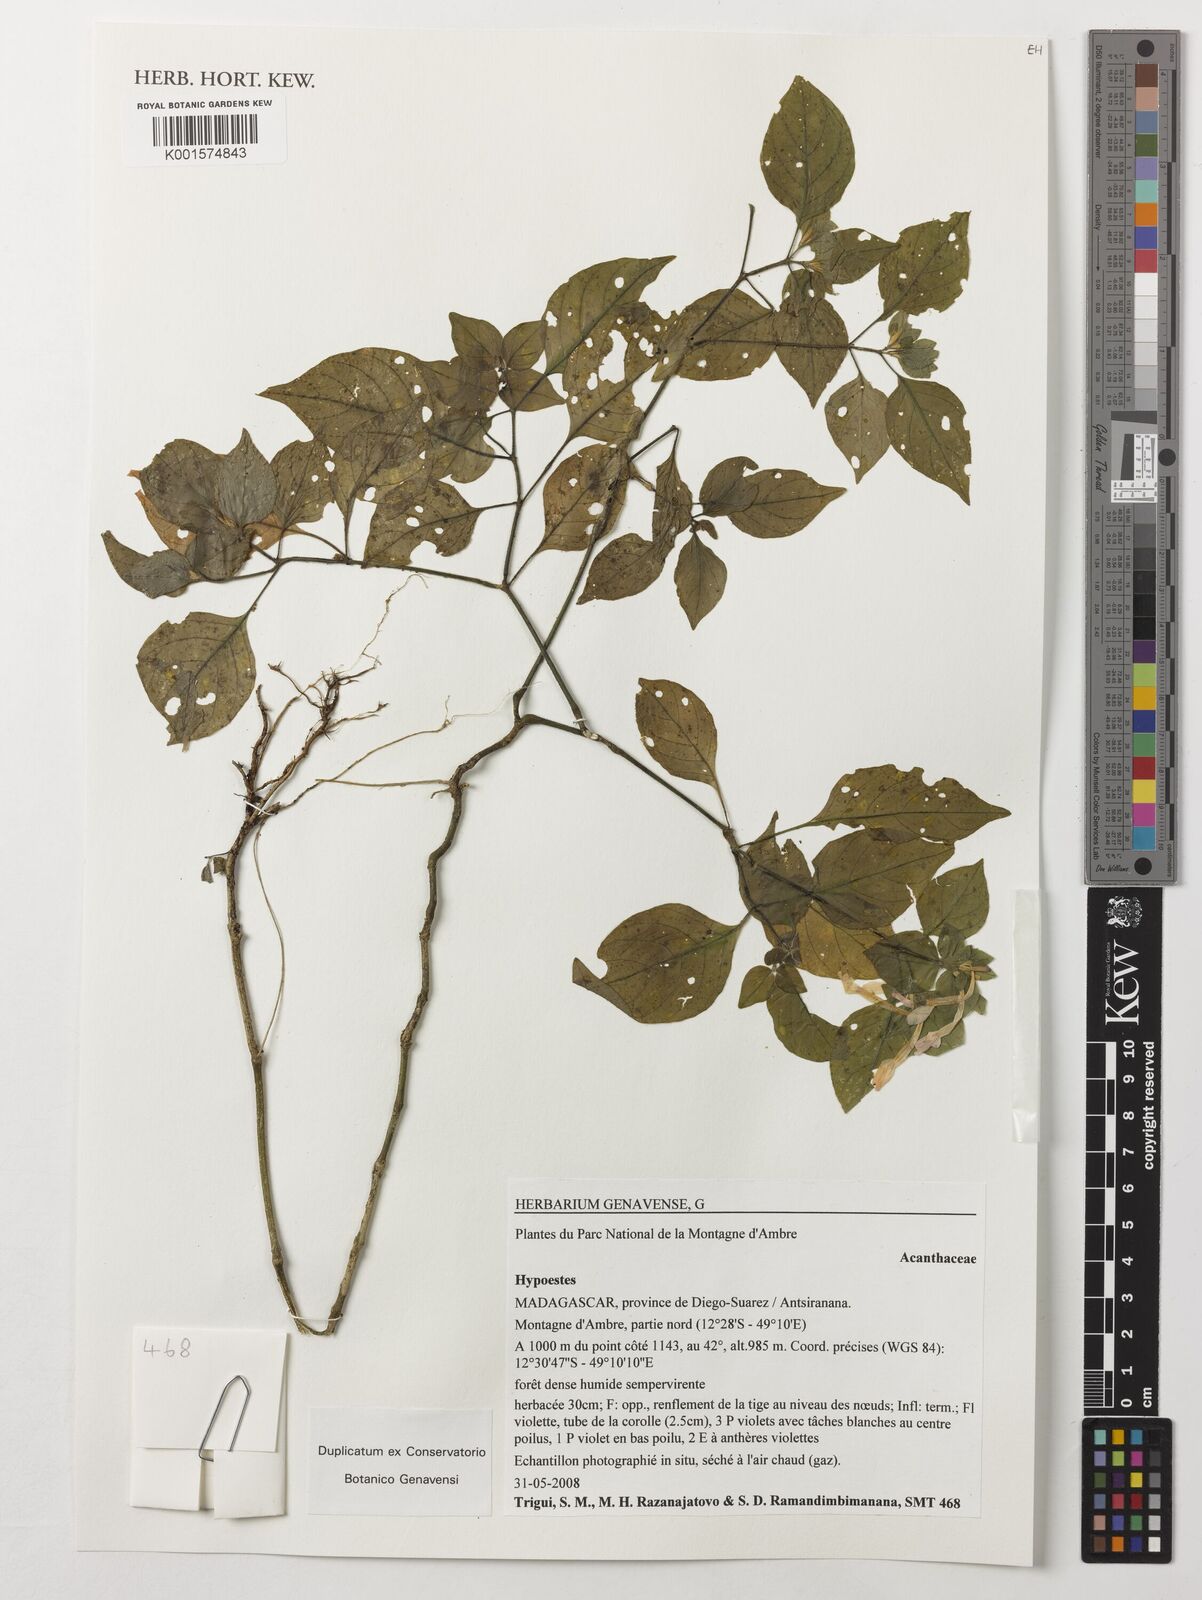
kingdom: Plantae
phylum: Tracheophyta
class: Magnoliopsida
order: Lamiales
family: Acanthaceae
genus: Hypoestes
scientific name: Hypoestes
